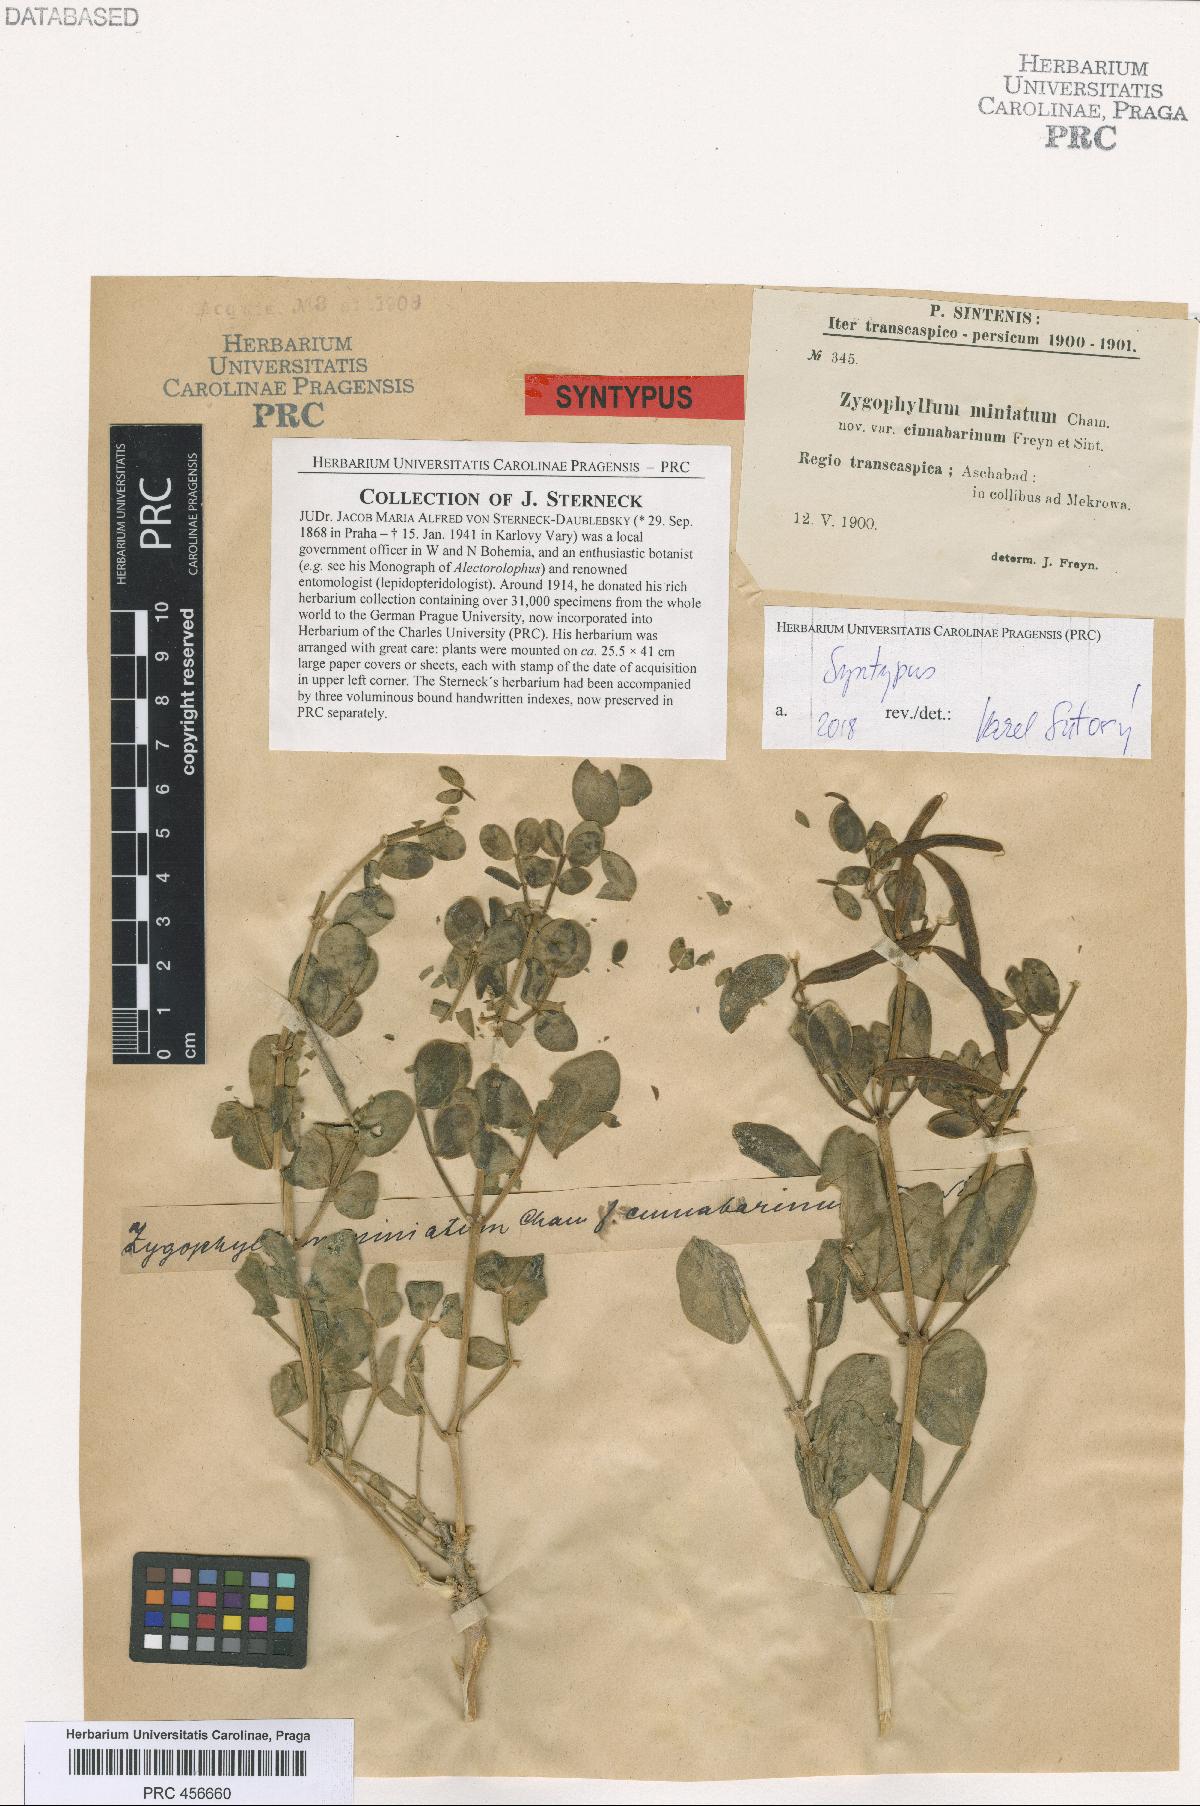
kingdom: Plantae
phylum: Tracheophyta
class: Magnoliopsida
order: Zygophyllales
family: Zygophyllaceae
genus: Zygophyllum
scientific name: Zygophyllum miniatum
